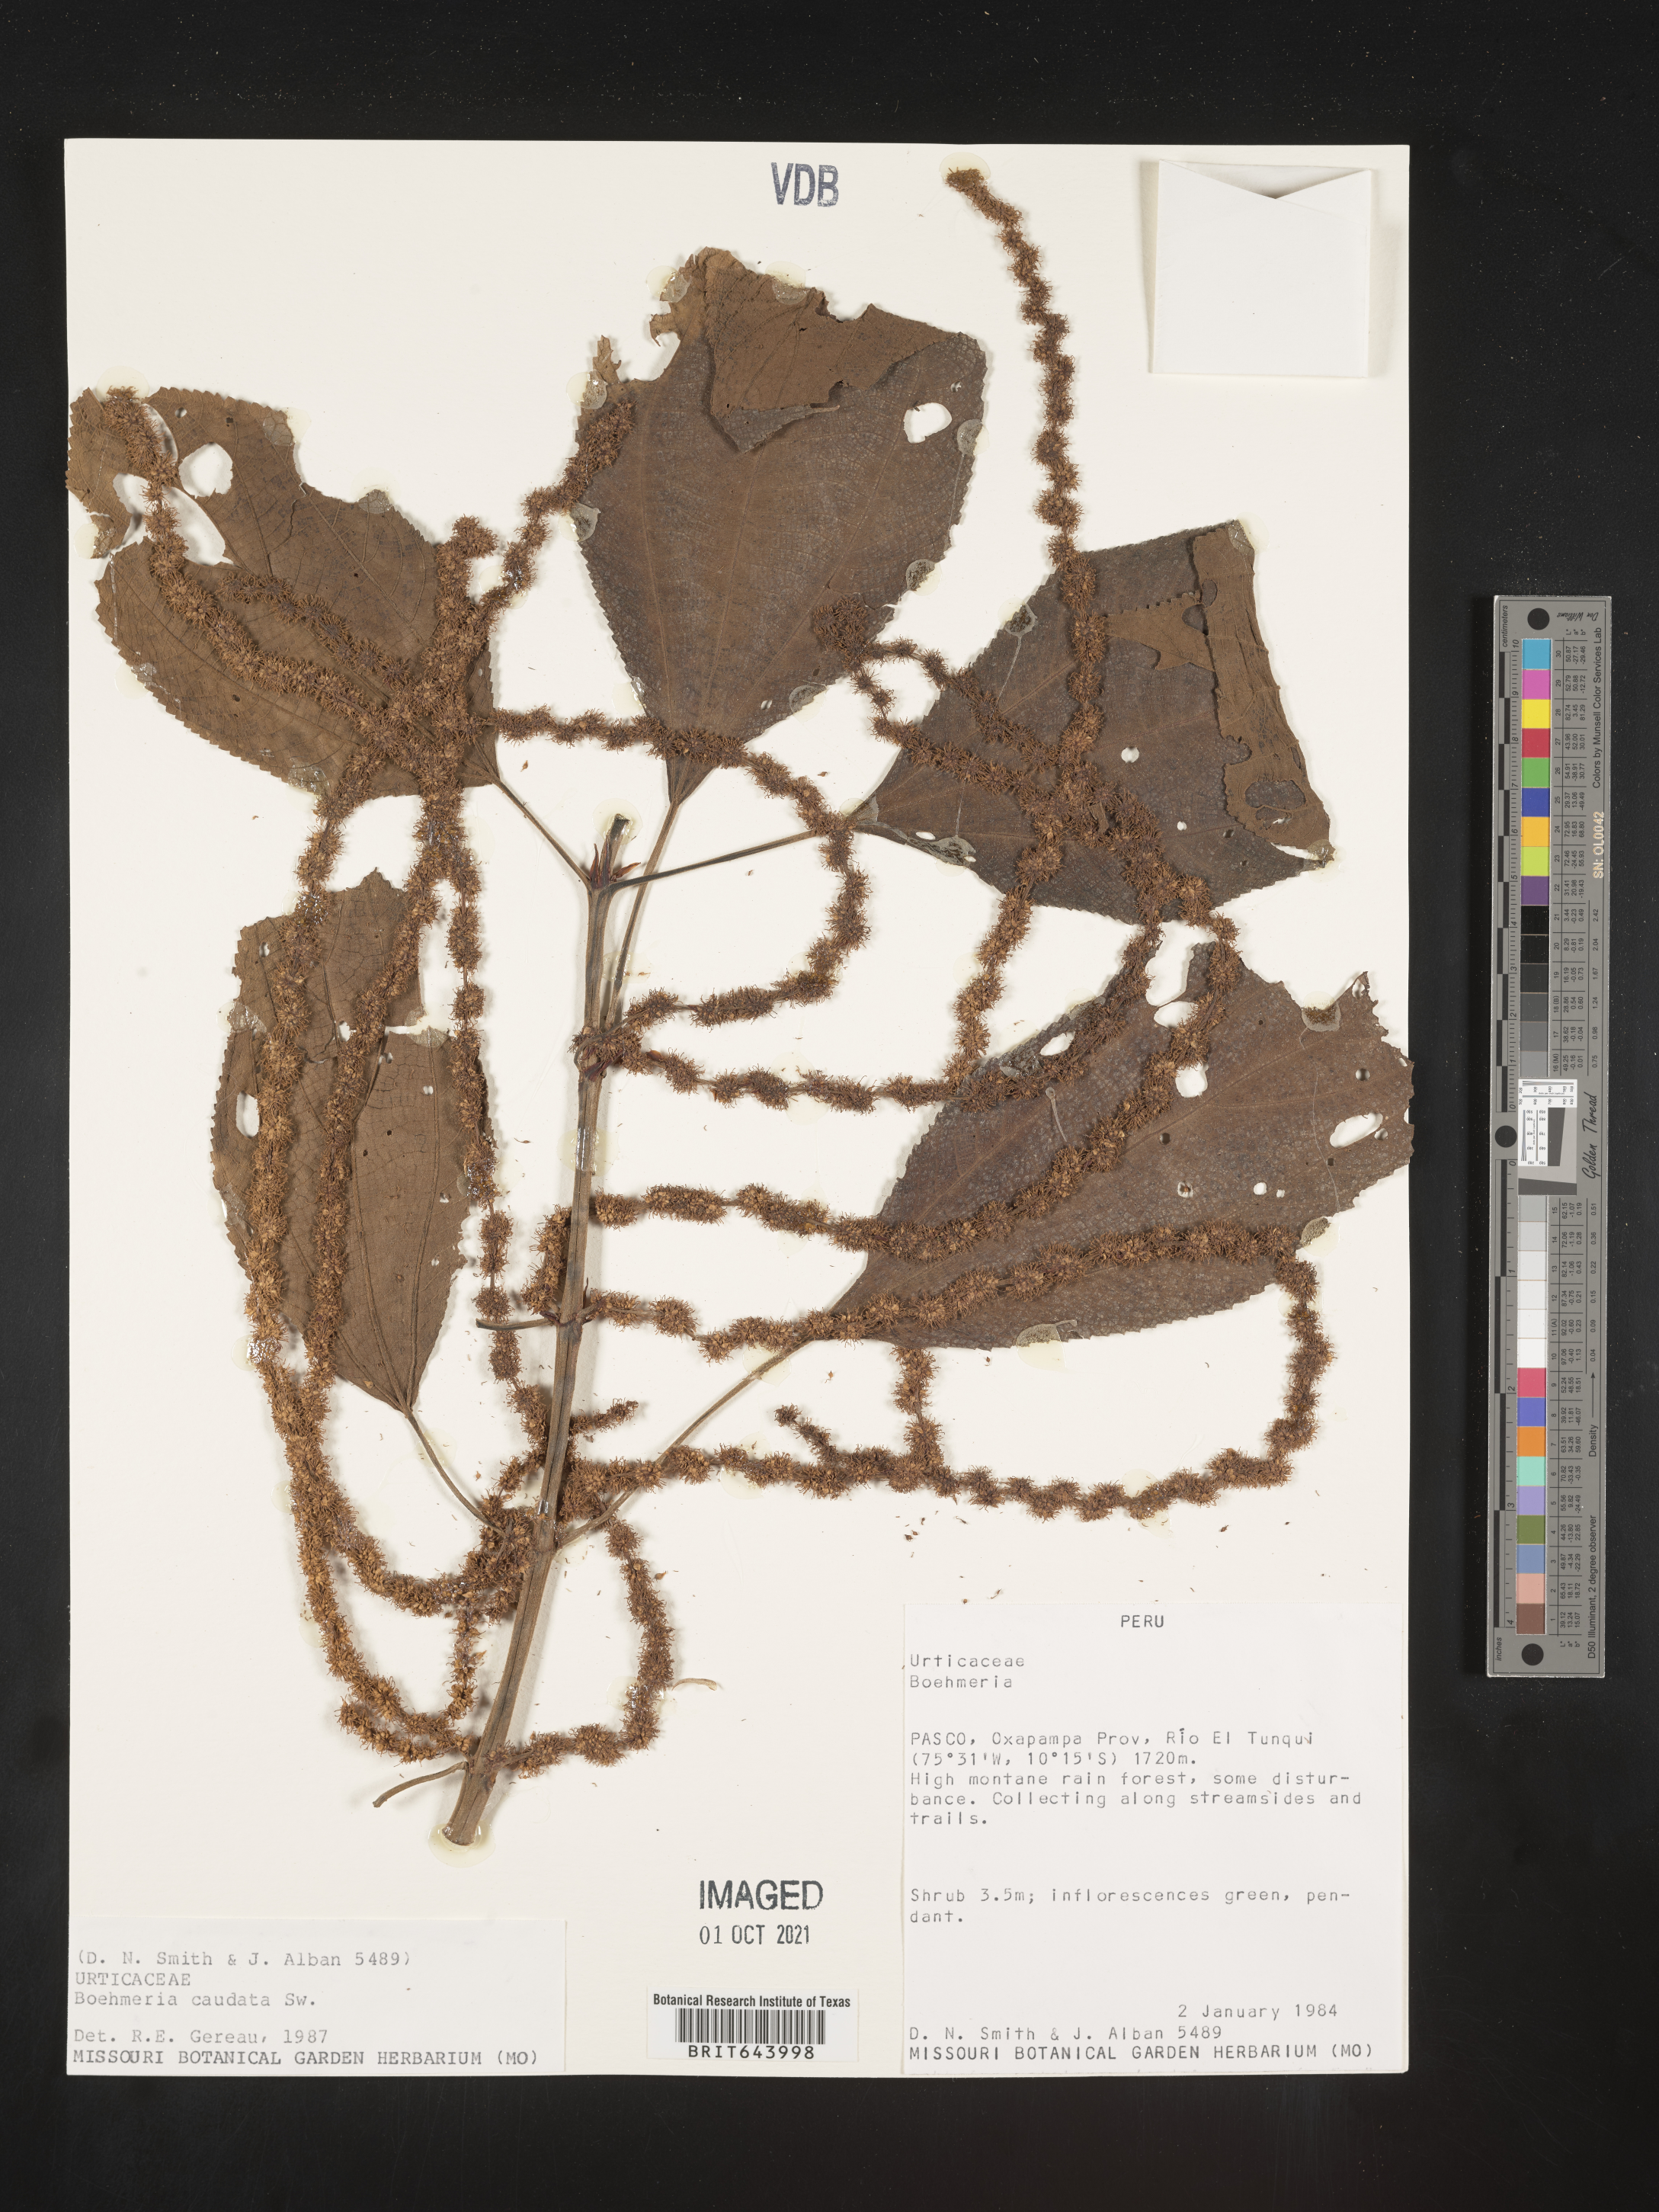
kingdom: Plantae
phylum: Tracheophyta
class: Magnoliopsida
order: Rosales
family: Urticaceae
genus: Boehmeria
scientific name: Boehmeria
